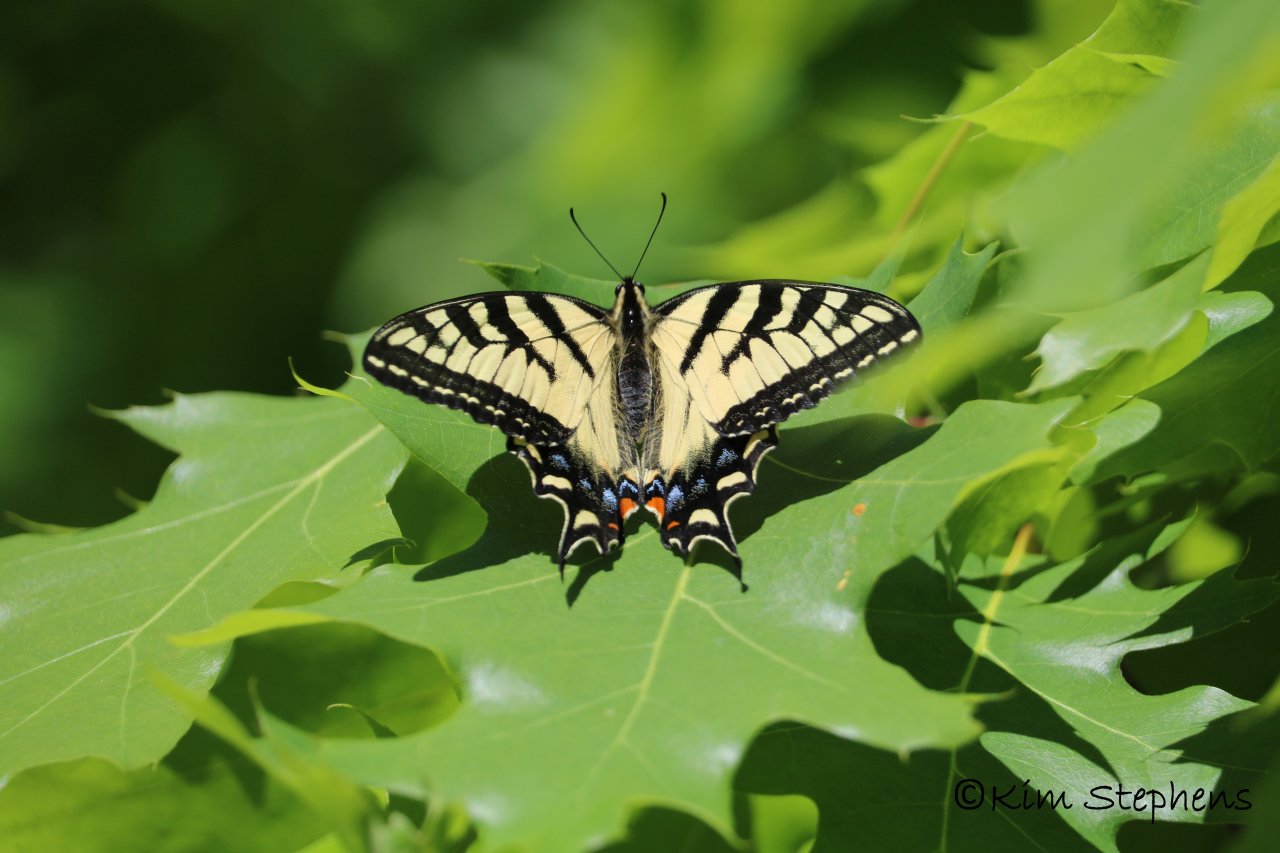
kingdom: Animalia
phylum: Arthropoda
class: Insecta
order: Lepidoptera
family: Papilionidae
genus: Pterourus
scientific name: Pterourus canadensis
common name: Canadian Tiger Swallowtail
